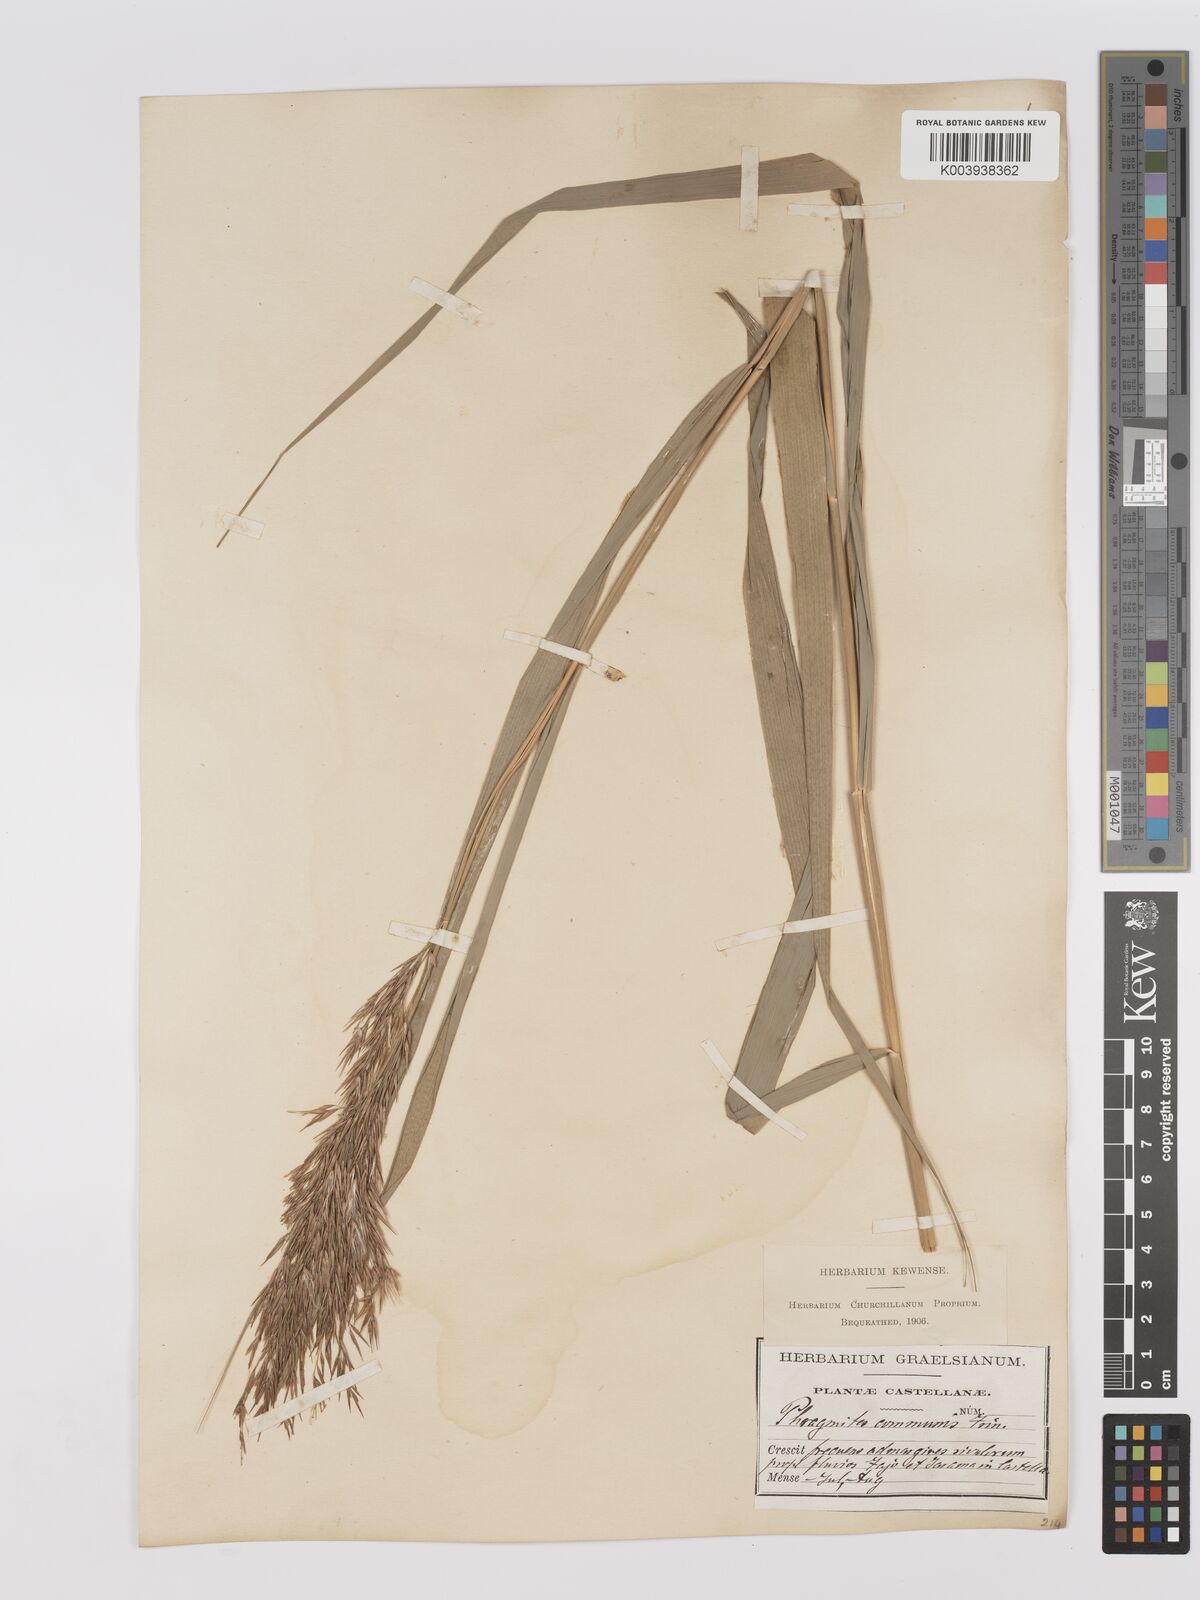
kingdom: Plantae
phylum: Tracheophyta
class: Liliopsida
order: Poales
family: Poaceae
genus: Phragmites
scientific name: Phragmites australis
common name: Common reed
